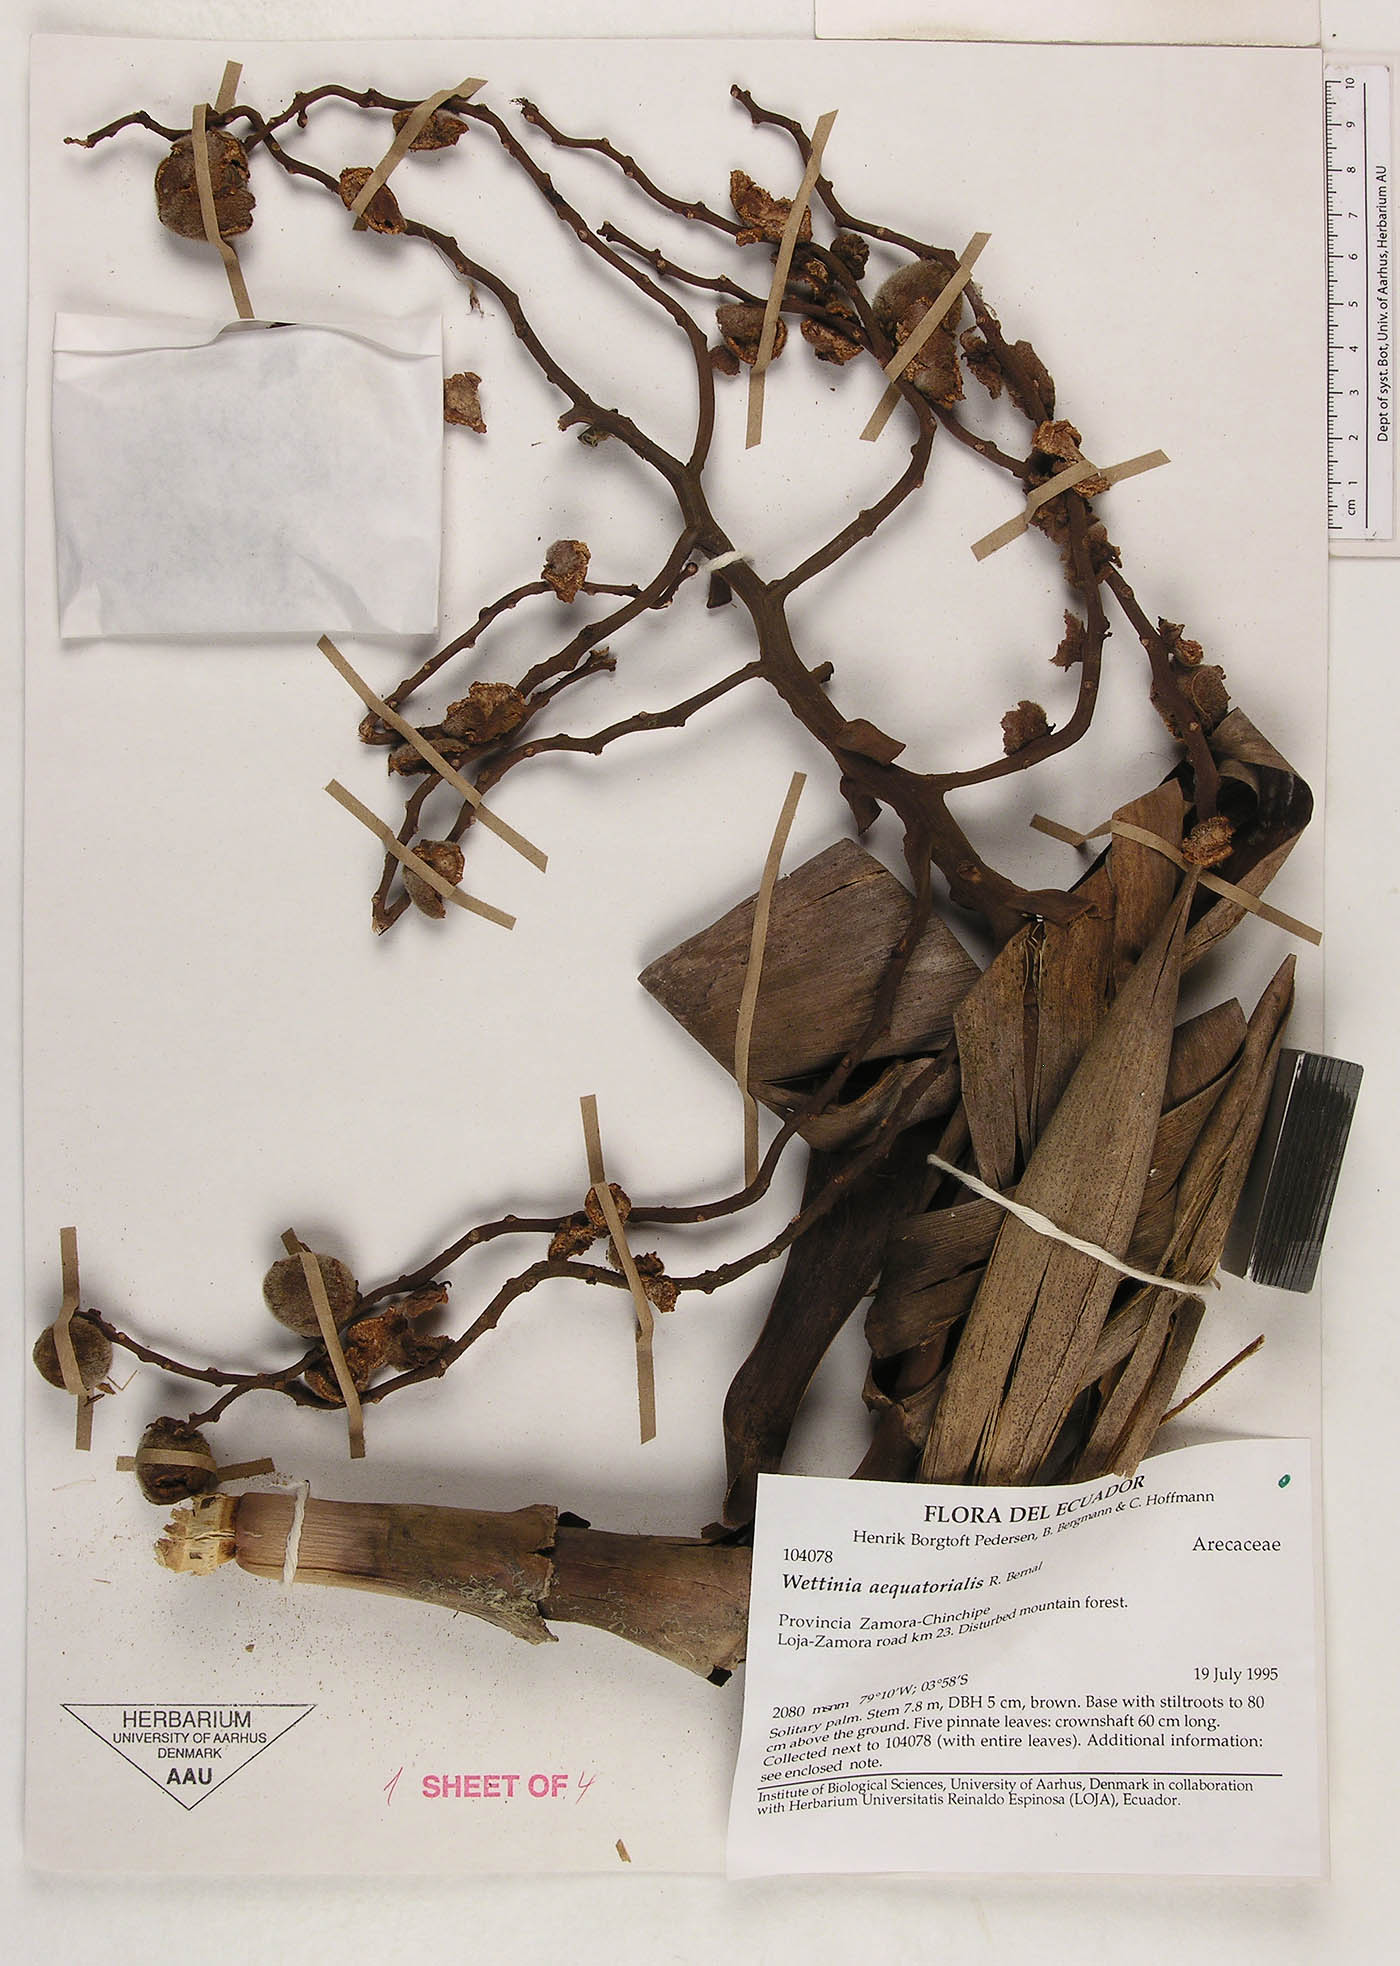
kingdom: Plantae
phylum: Tracheophyta
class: Liliopsida
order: Arecales
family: Arecaceae
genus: Wettinia
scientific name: Wettinia aequatorialis
